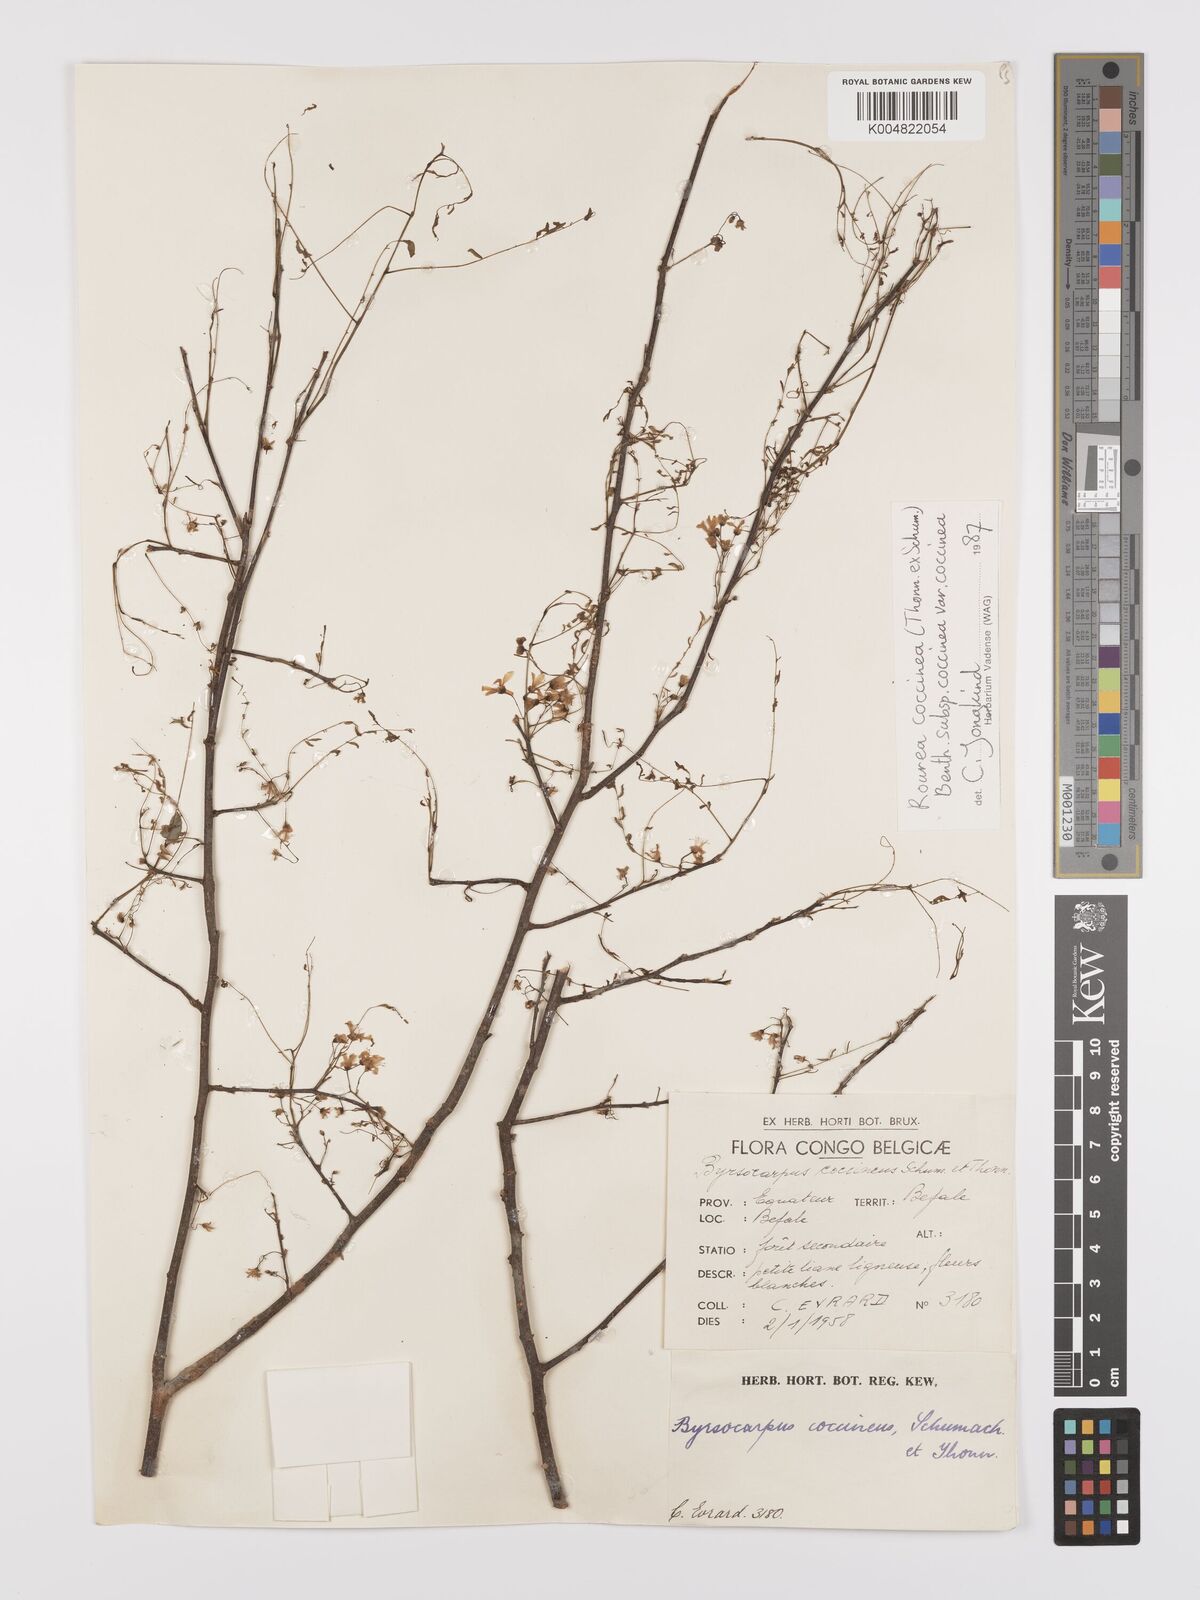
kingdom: Plantae
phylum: Tracheophyta
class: Magnoliopsida
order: Oxalidales
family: Connaraceae
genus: Rourea
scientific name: Rourea coccinea
